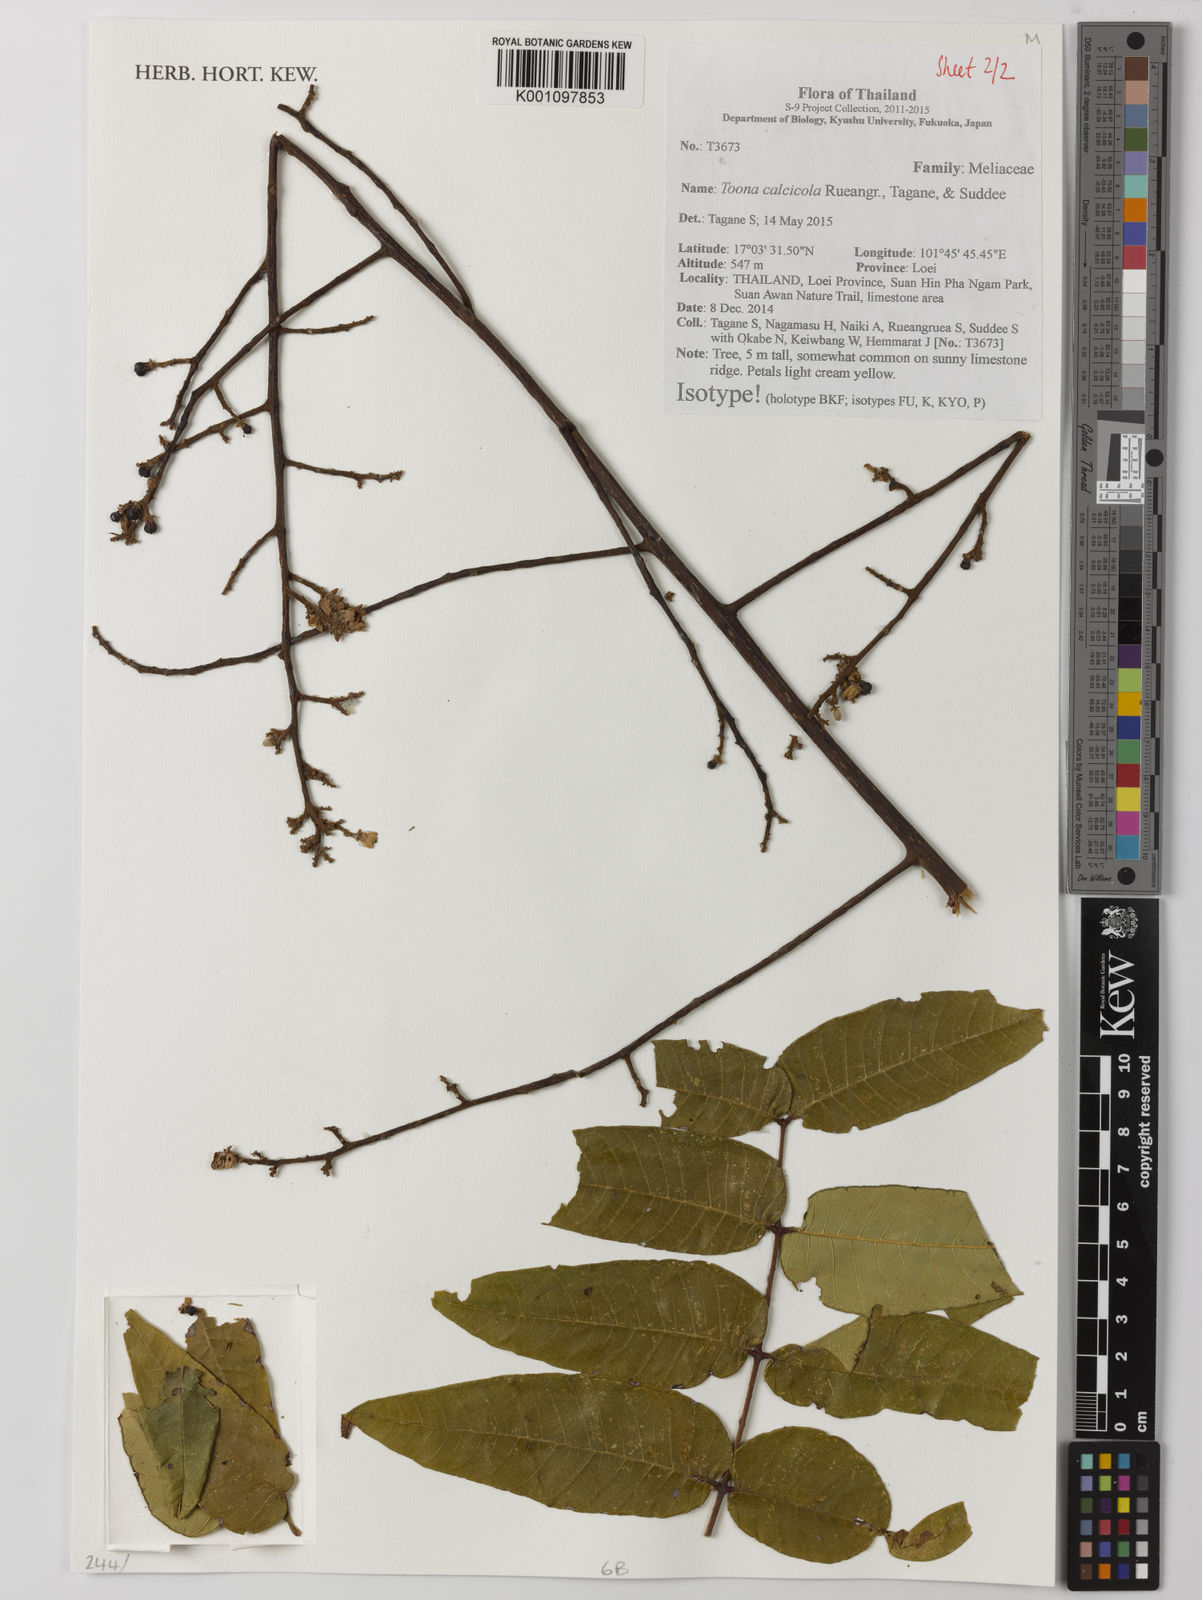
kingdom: Plantae
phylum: Tracheophyta
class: Magnoliopsida
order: Sapindales
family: Meliaceae
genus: Toona
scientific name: Toona calcicola
